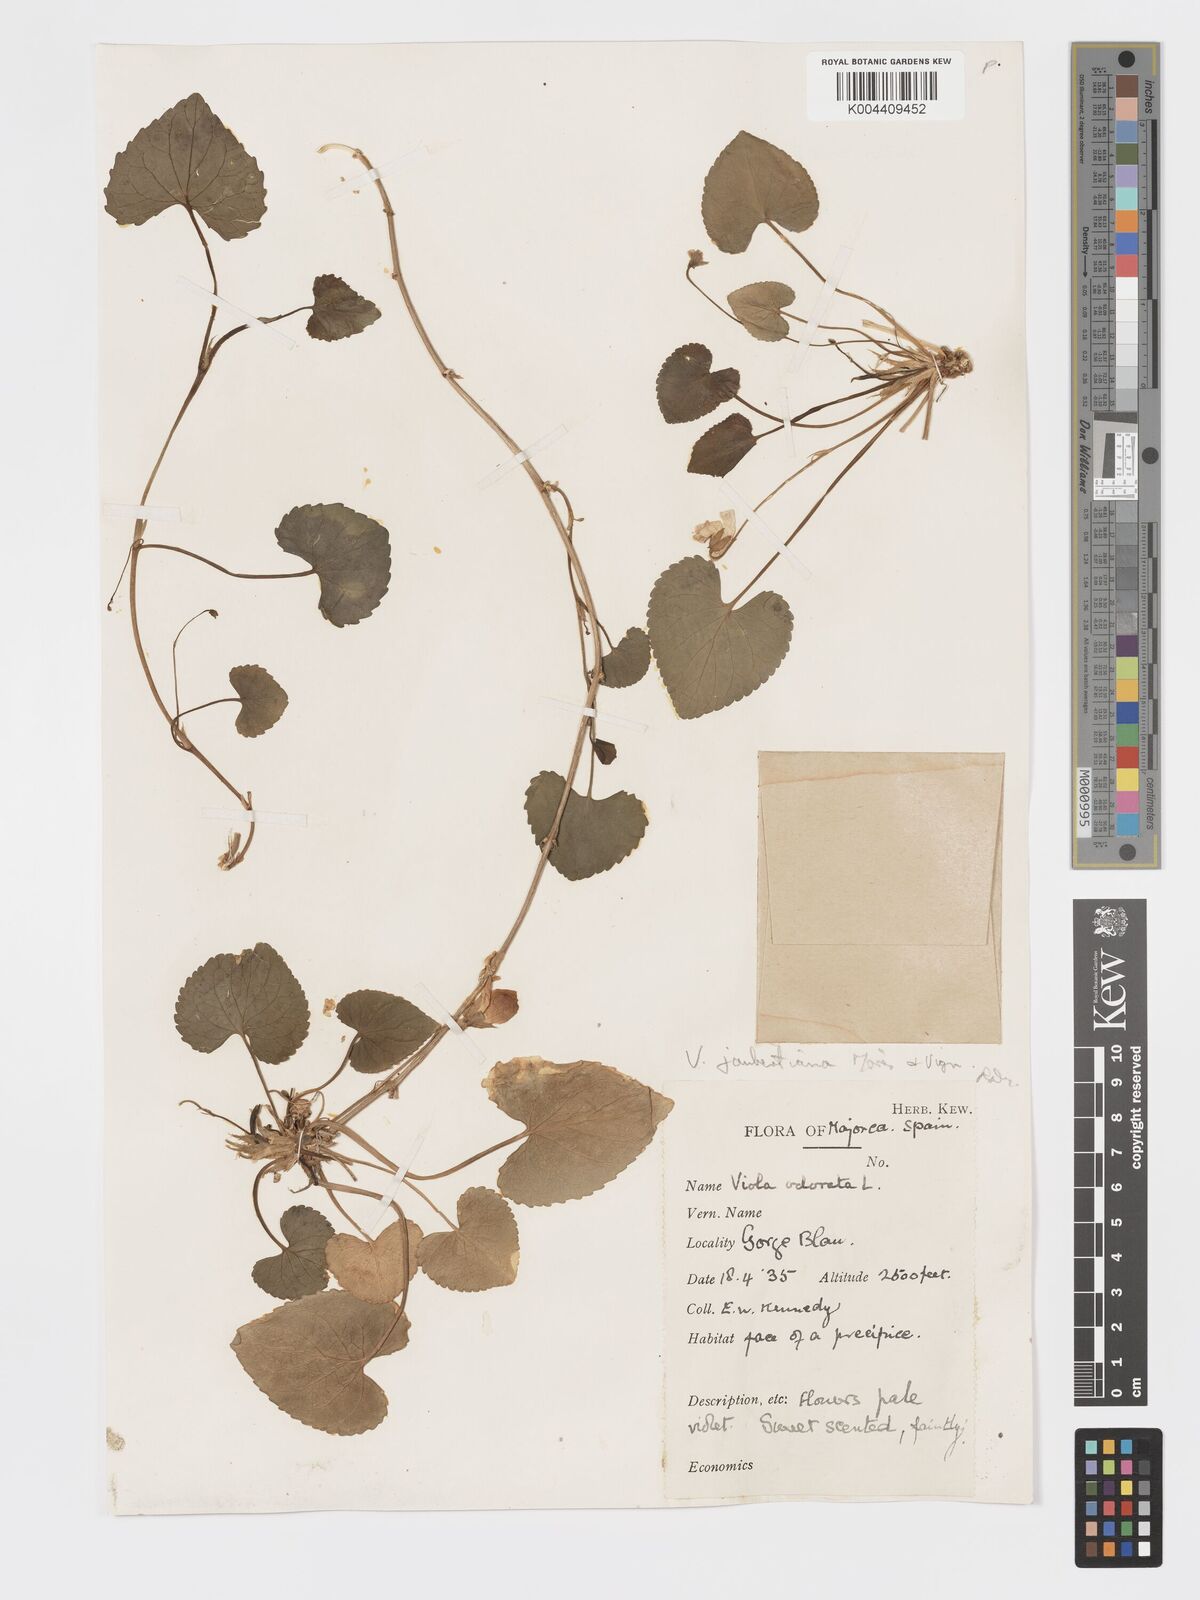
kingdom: Plantae
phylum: Tracheophyta
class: Magnoliopsida
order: Malpighiales
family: Violaceae
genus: Viola
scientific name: Viola jaubertiana
